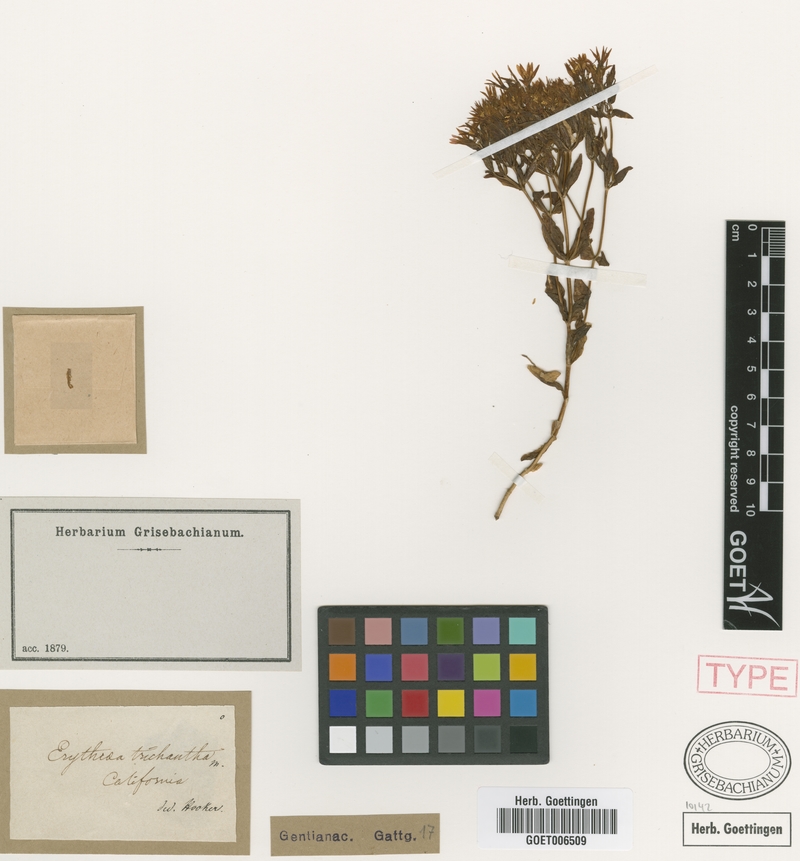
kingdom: Plantae
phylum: Tracheophyta
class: Magnoliopsida
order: Gentianales
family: Gentianaceae
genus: Zeltnera
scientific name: Zeltnera trichantha
